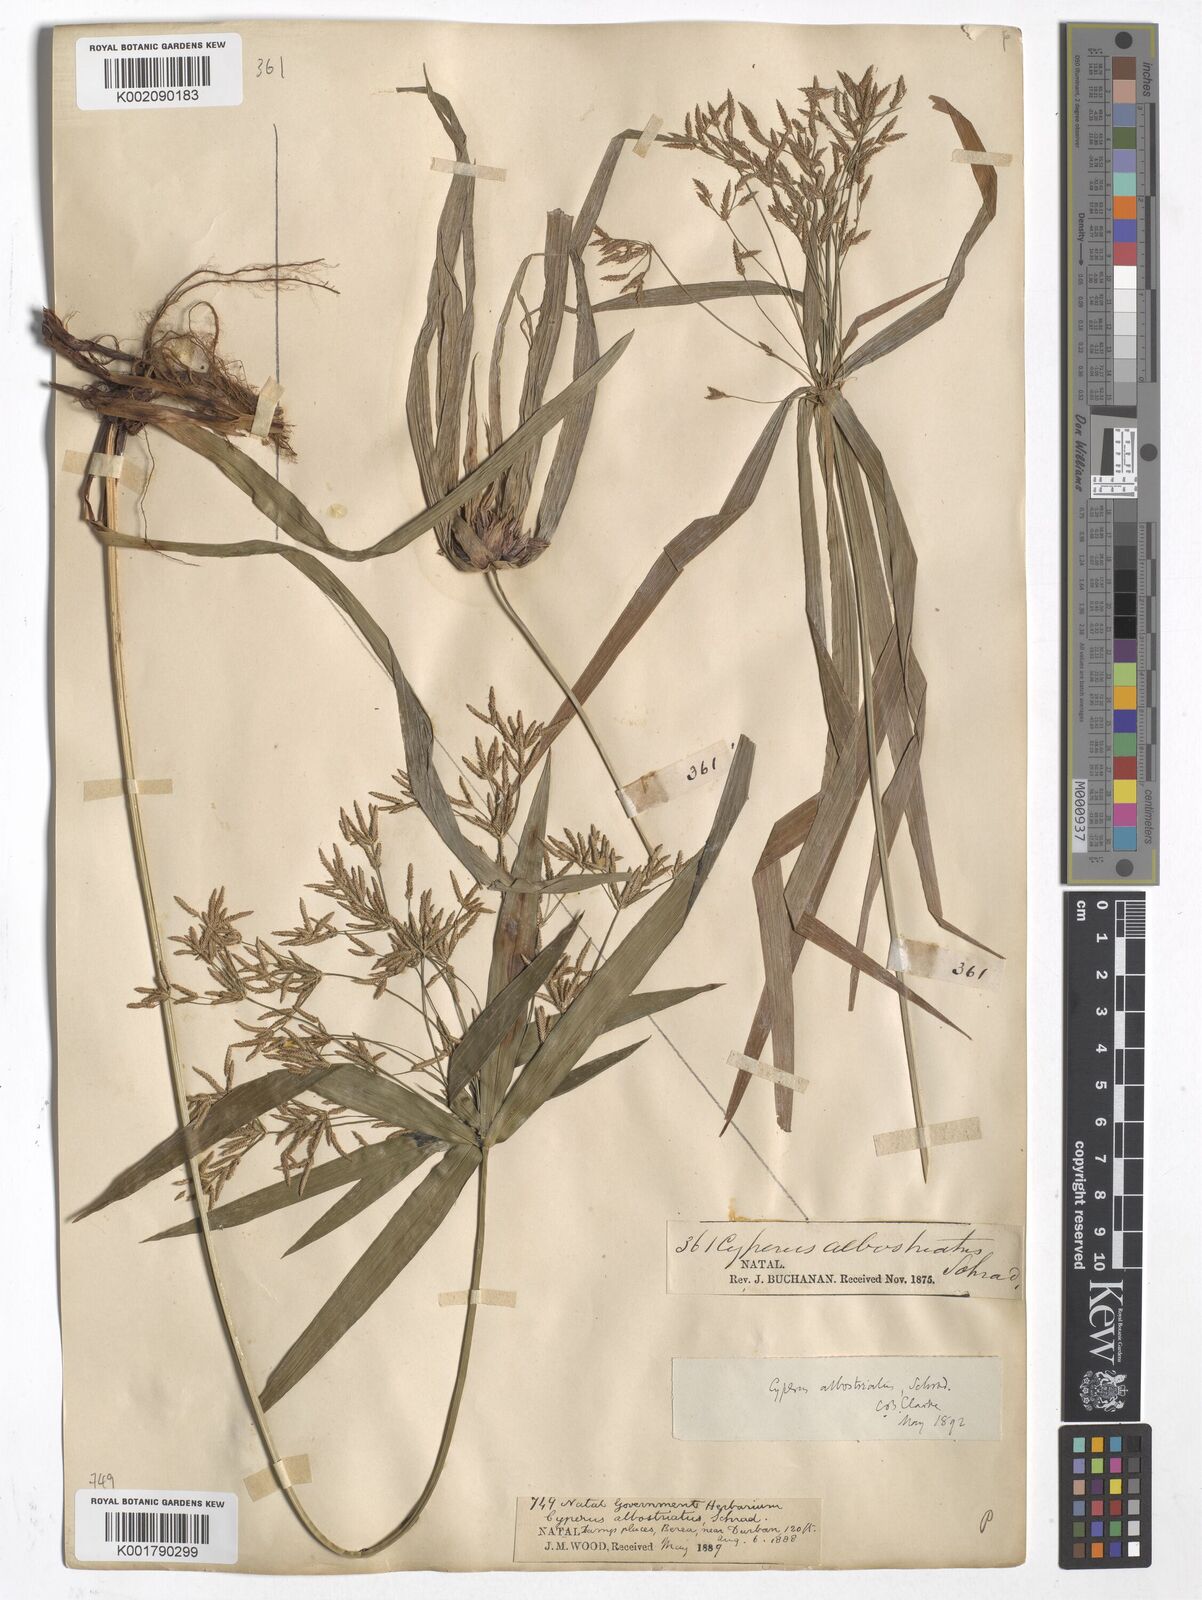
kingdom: Plantae
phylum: Tracheophyta
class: Liliopsida
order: Poales
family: Cyperaceae
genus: Cyperus
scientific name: Cyperus albostriatus
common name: Dwarf umbrella-grass
